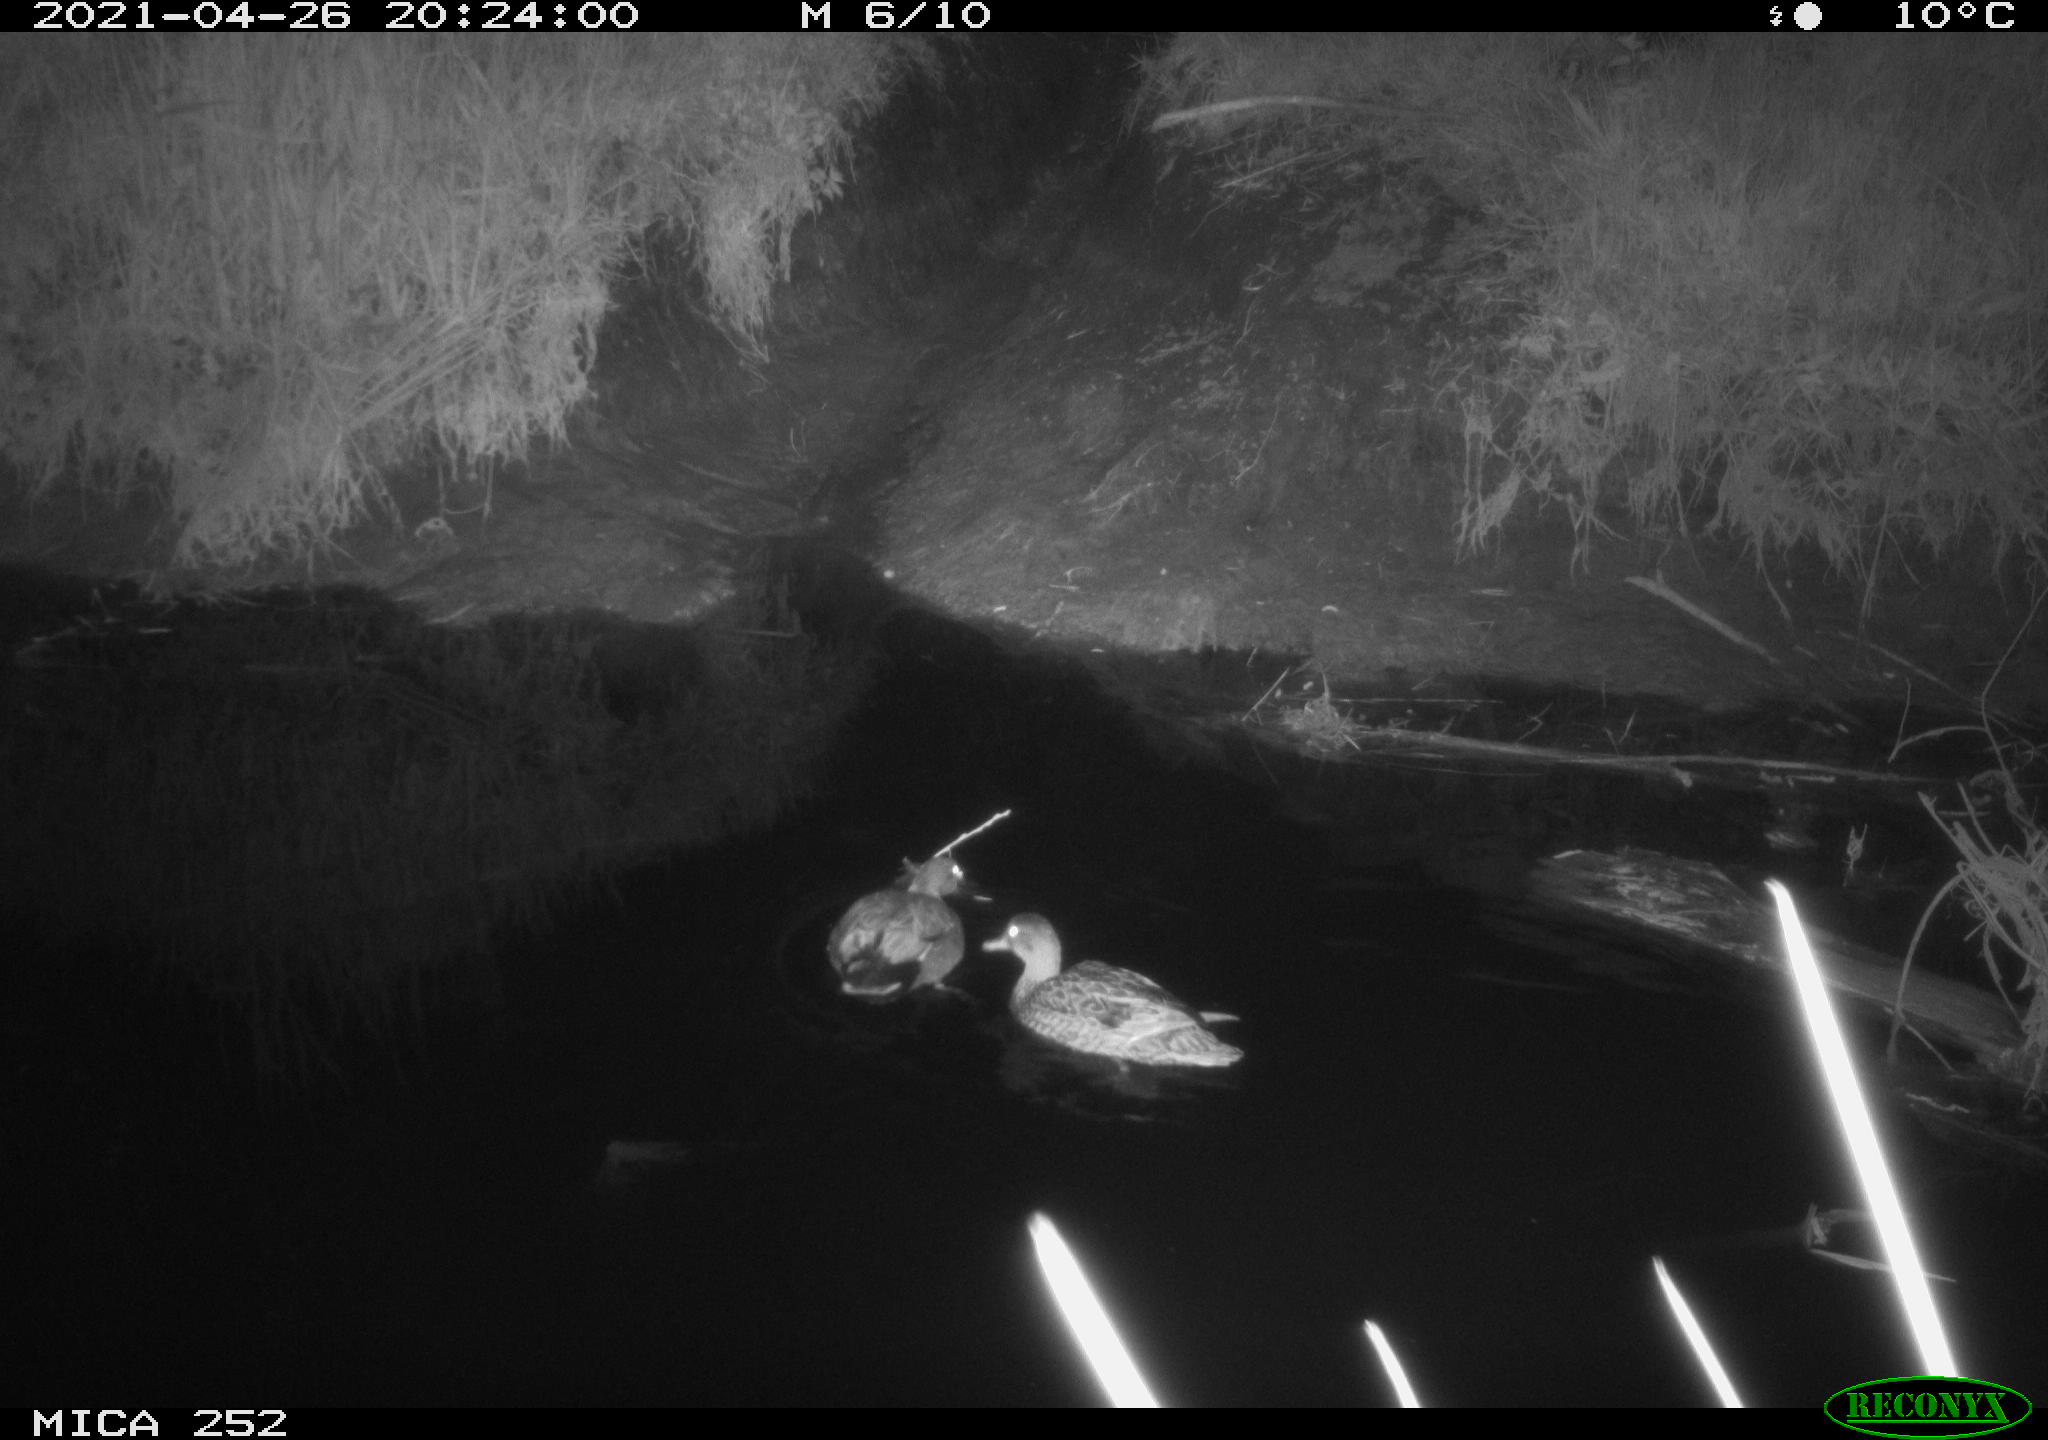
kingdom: Animalia
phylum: Chordata
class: Aves
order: Anseriformes
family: Anatidae
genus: Anas
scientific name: Anas platyrhynchos
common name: Mallard
